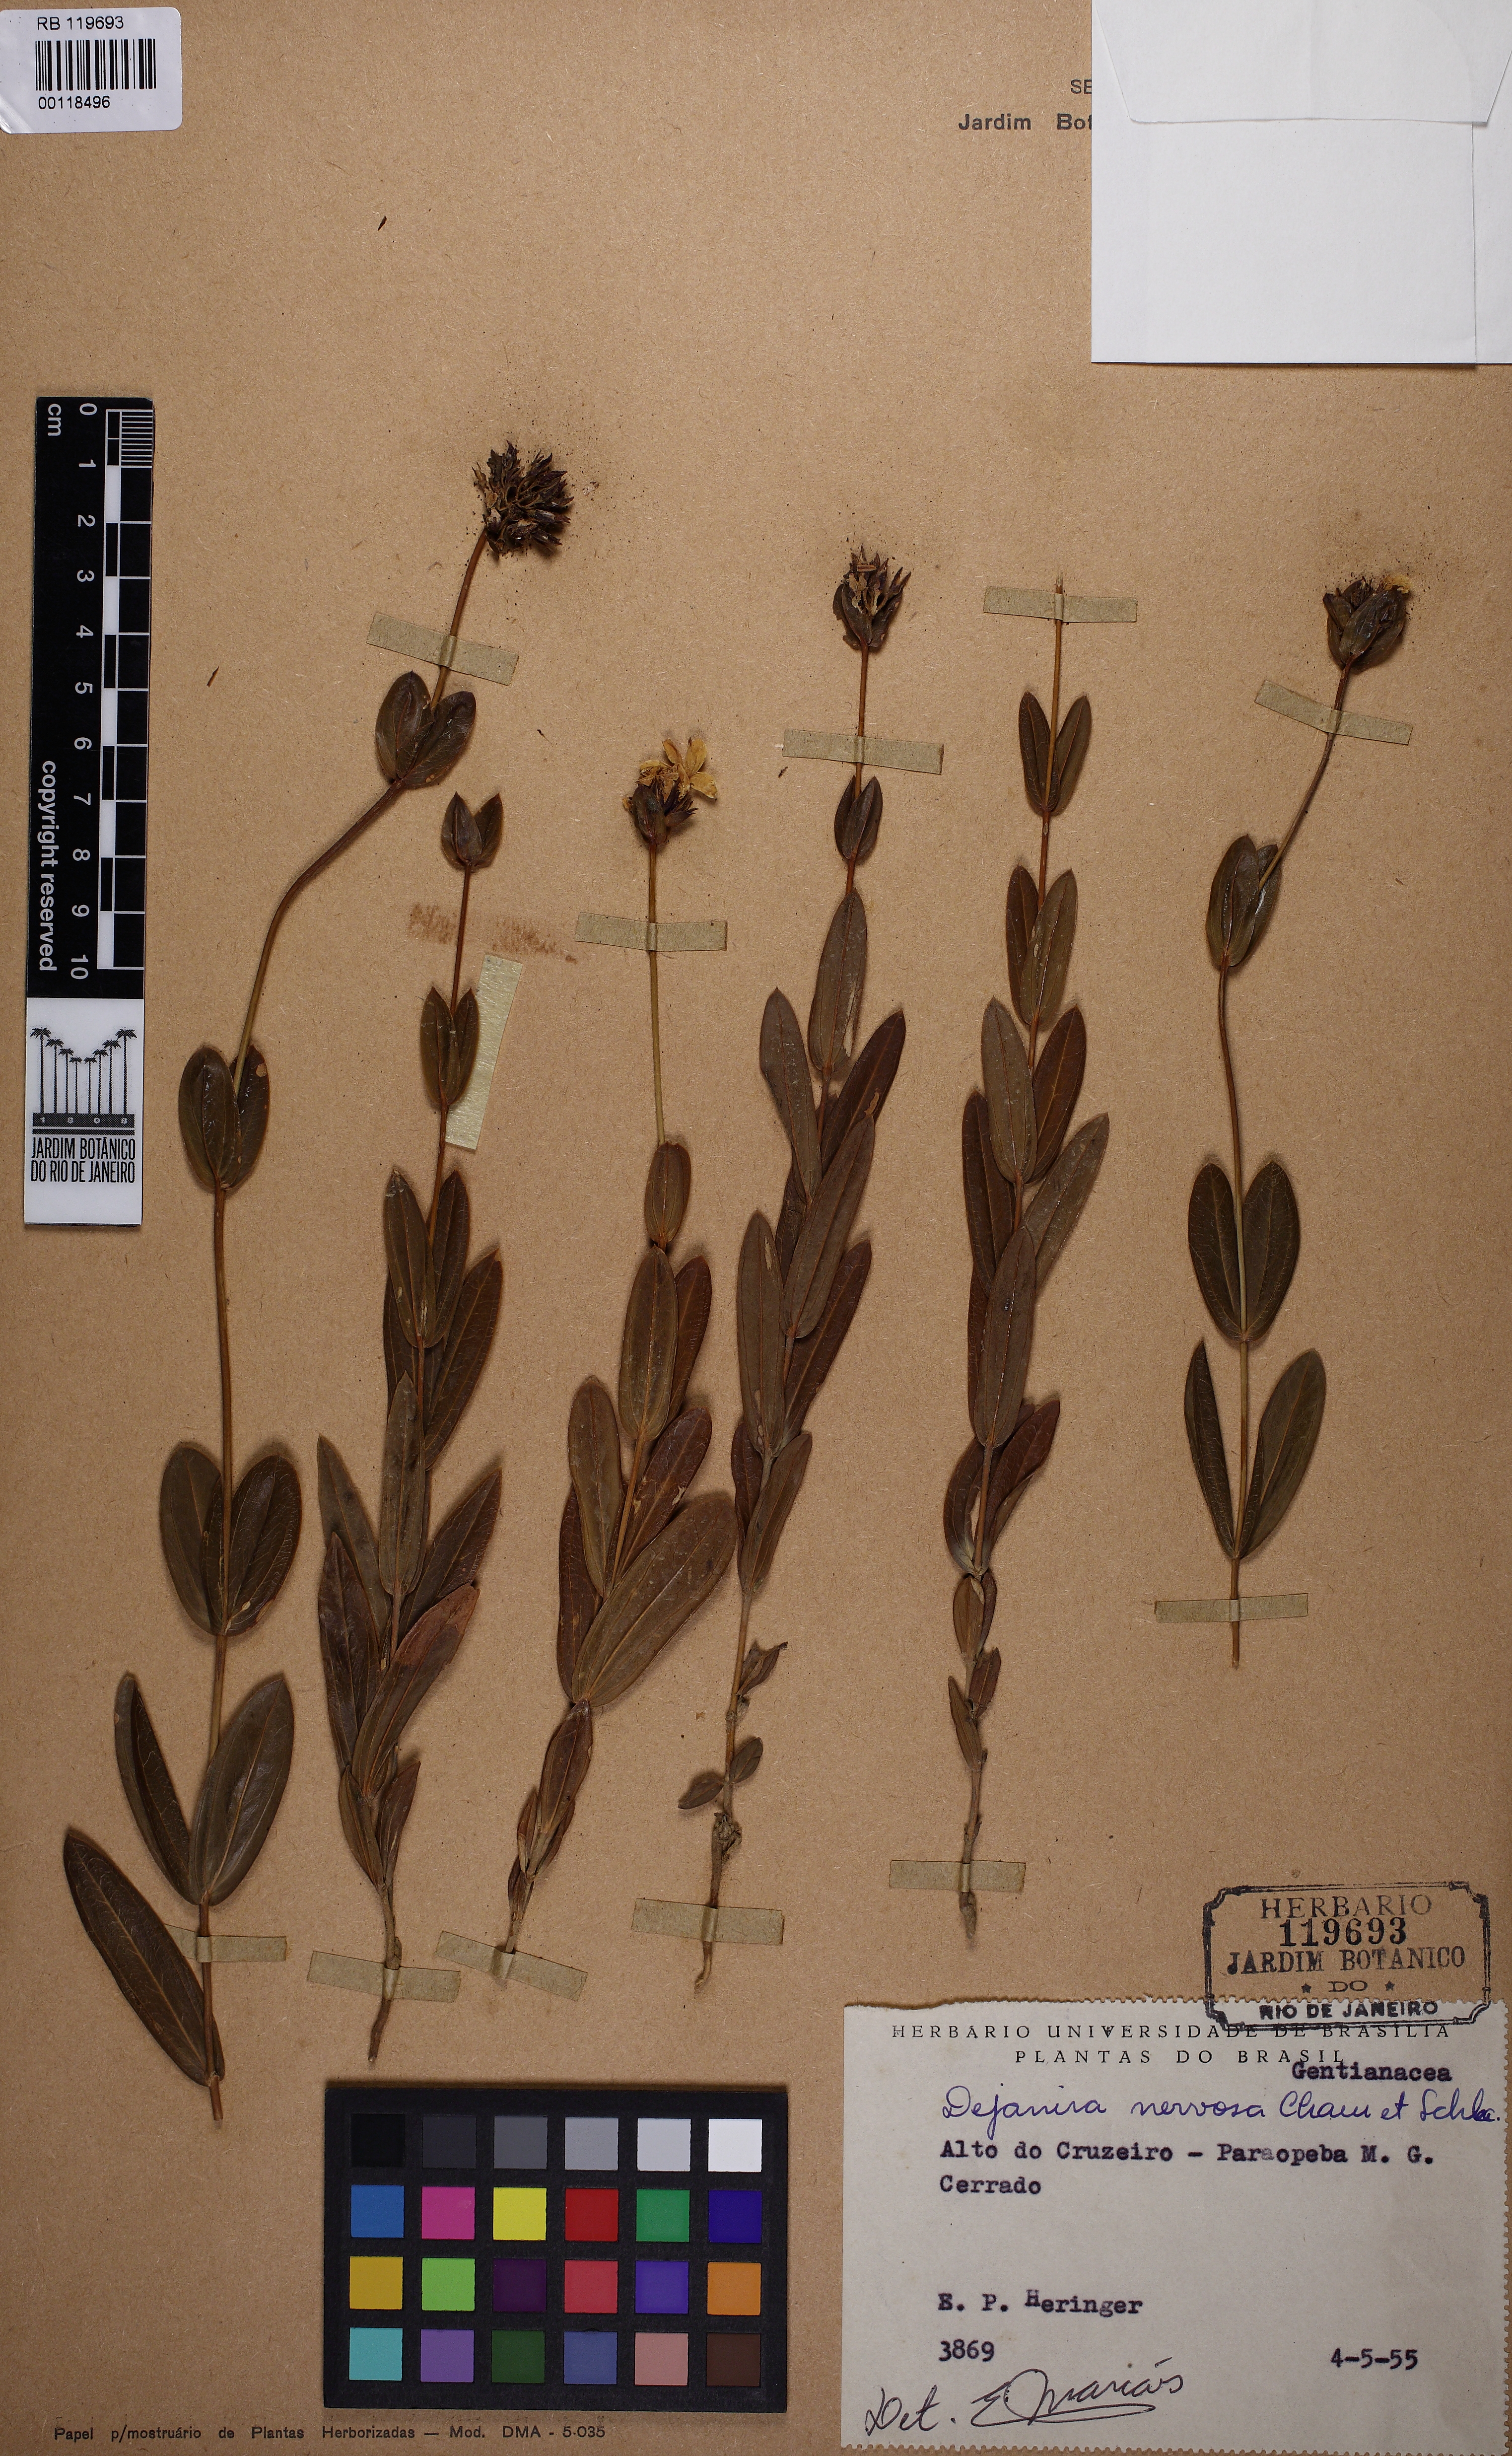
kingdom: Plantae
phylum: Tracheophyta
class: Magnoliopsida
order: Gentianales
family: Gentianaceae
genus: Deianira
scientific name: Deianira nervosa
